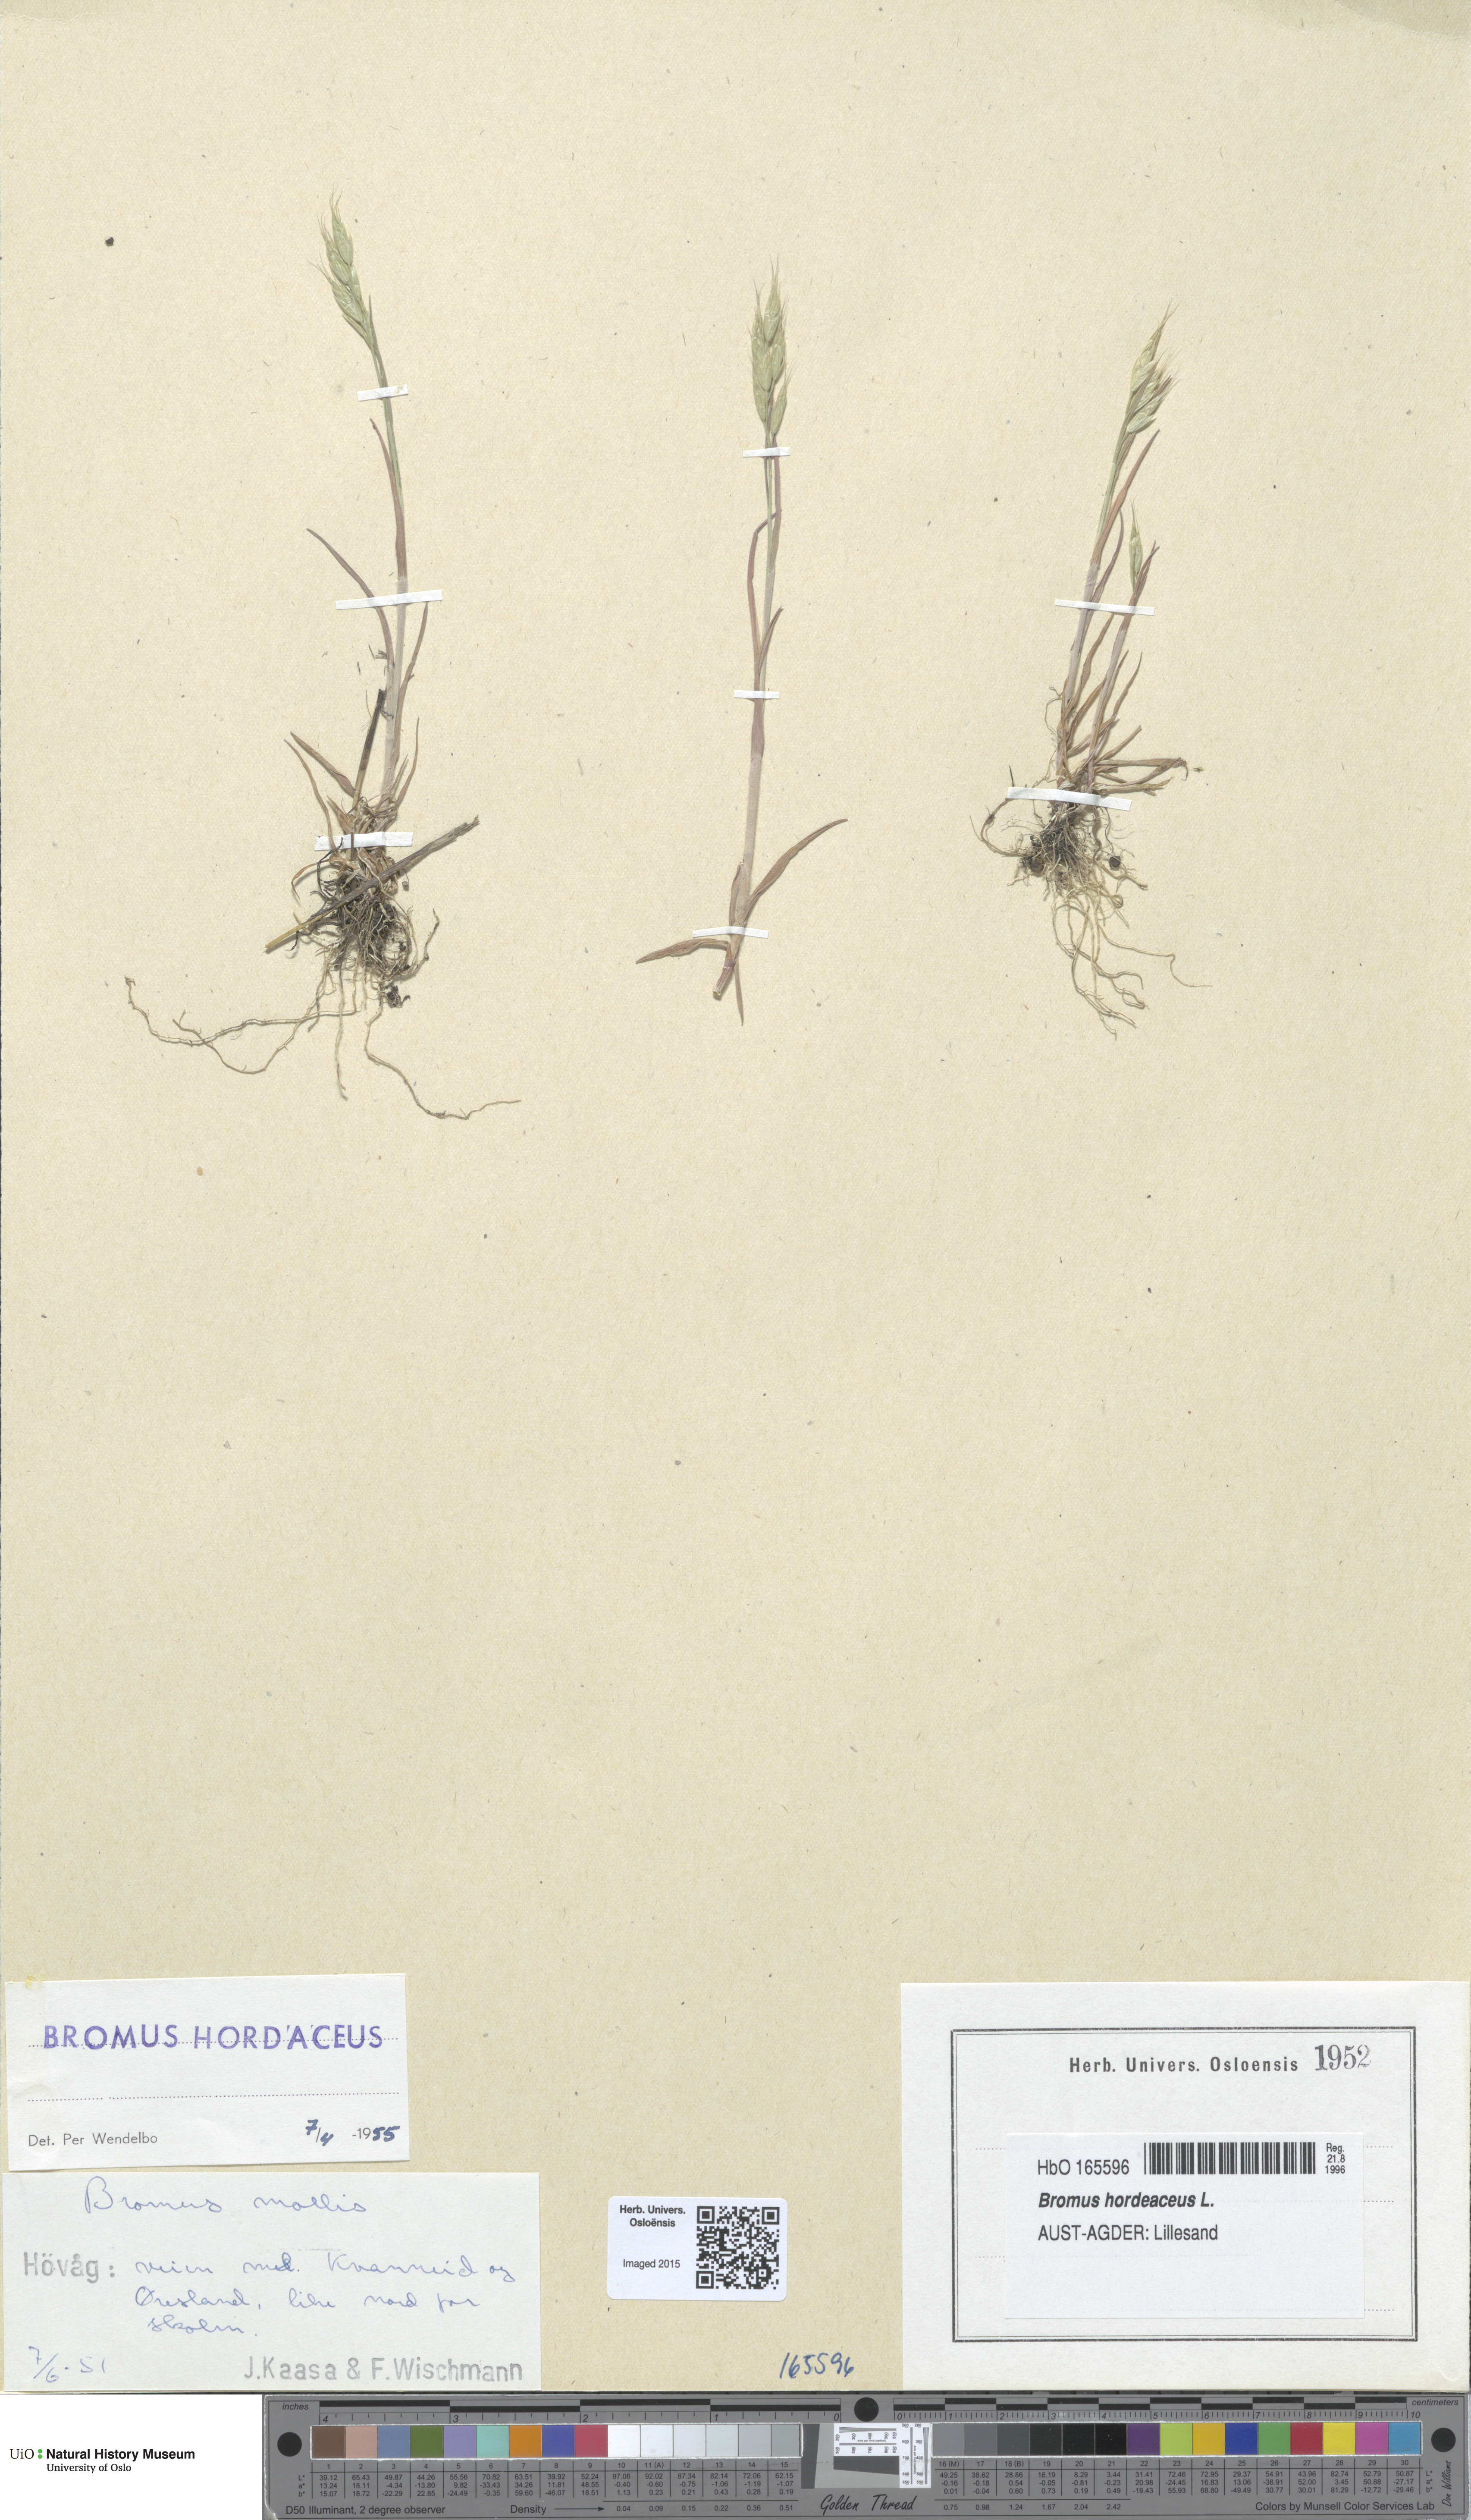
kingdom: Plantae
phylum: Tracheophyta
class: Liliopsida
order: Poales
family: Poaceae
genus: Bromus
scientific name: Bromus hordeaceus
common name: Soft brome
